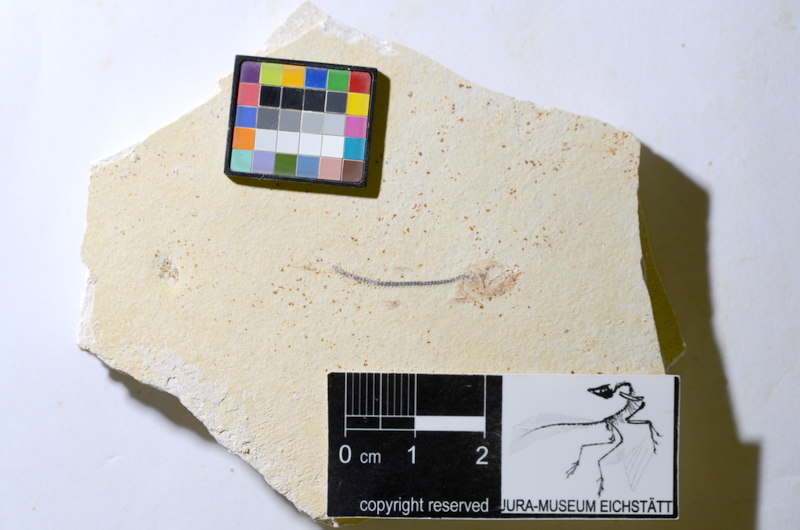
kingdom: Animalia
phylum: Chordata
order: Salmoniformes
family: Orthogonikleithridae
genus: Orthogonikleithrus
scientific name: Orthogonikleithrus hoelli
